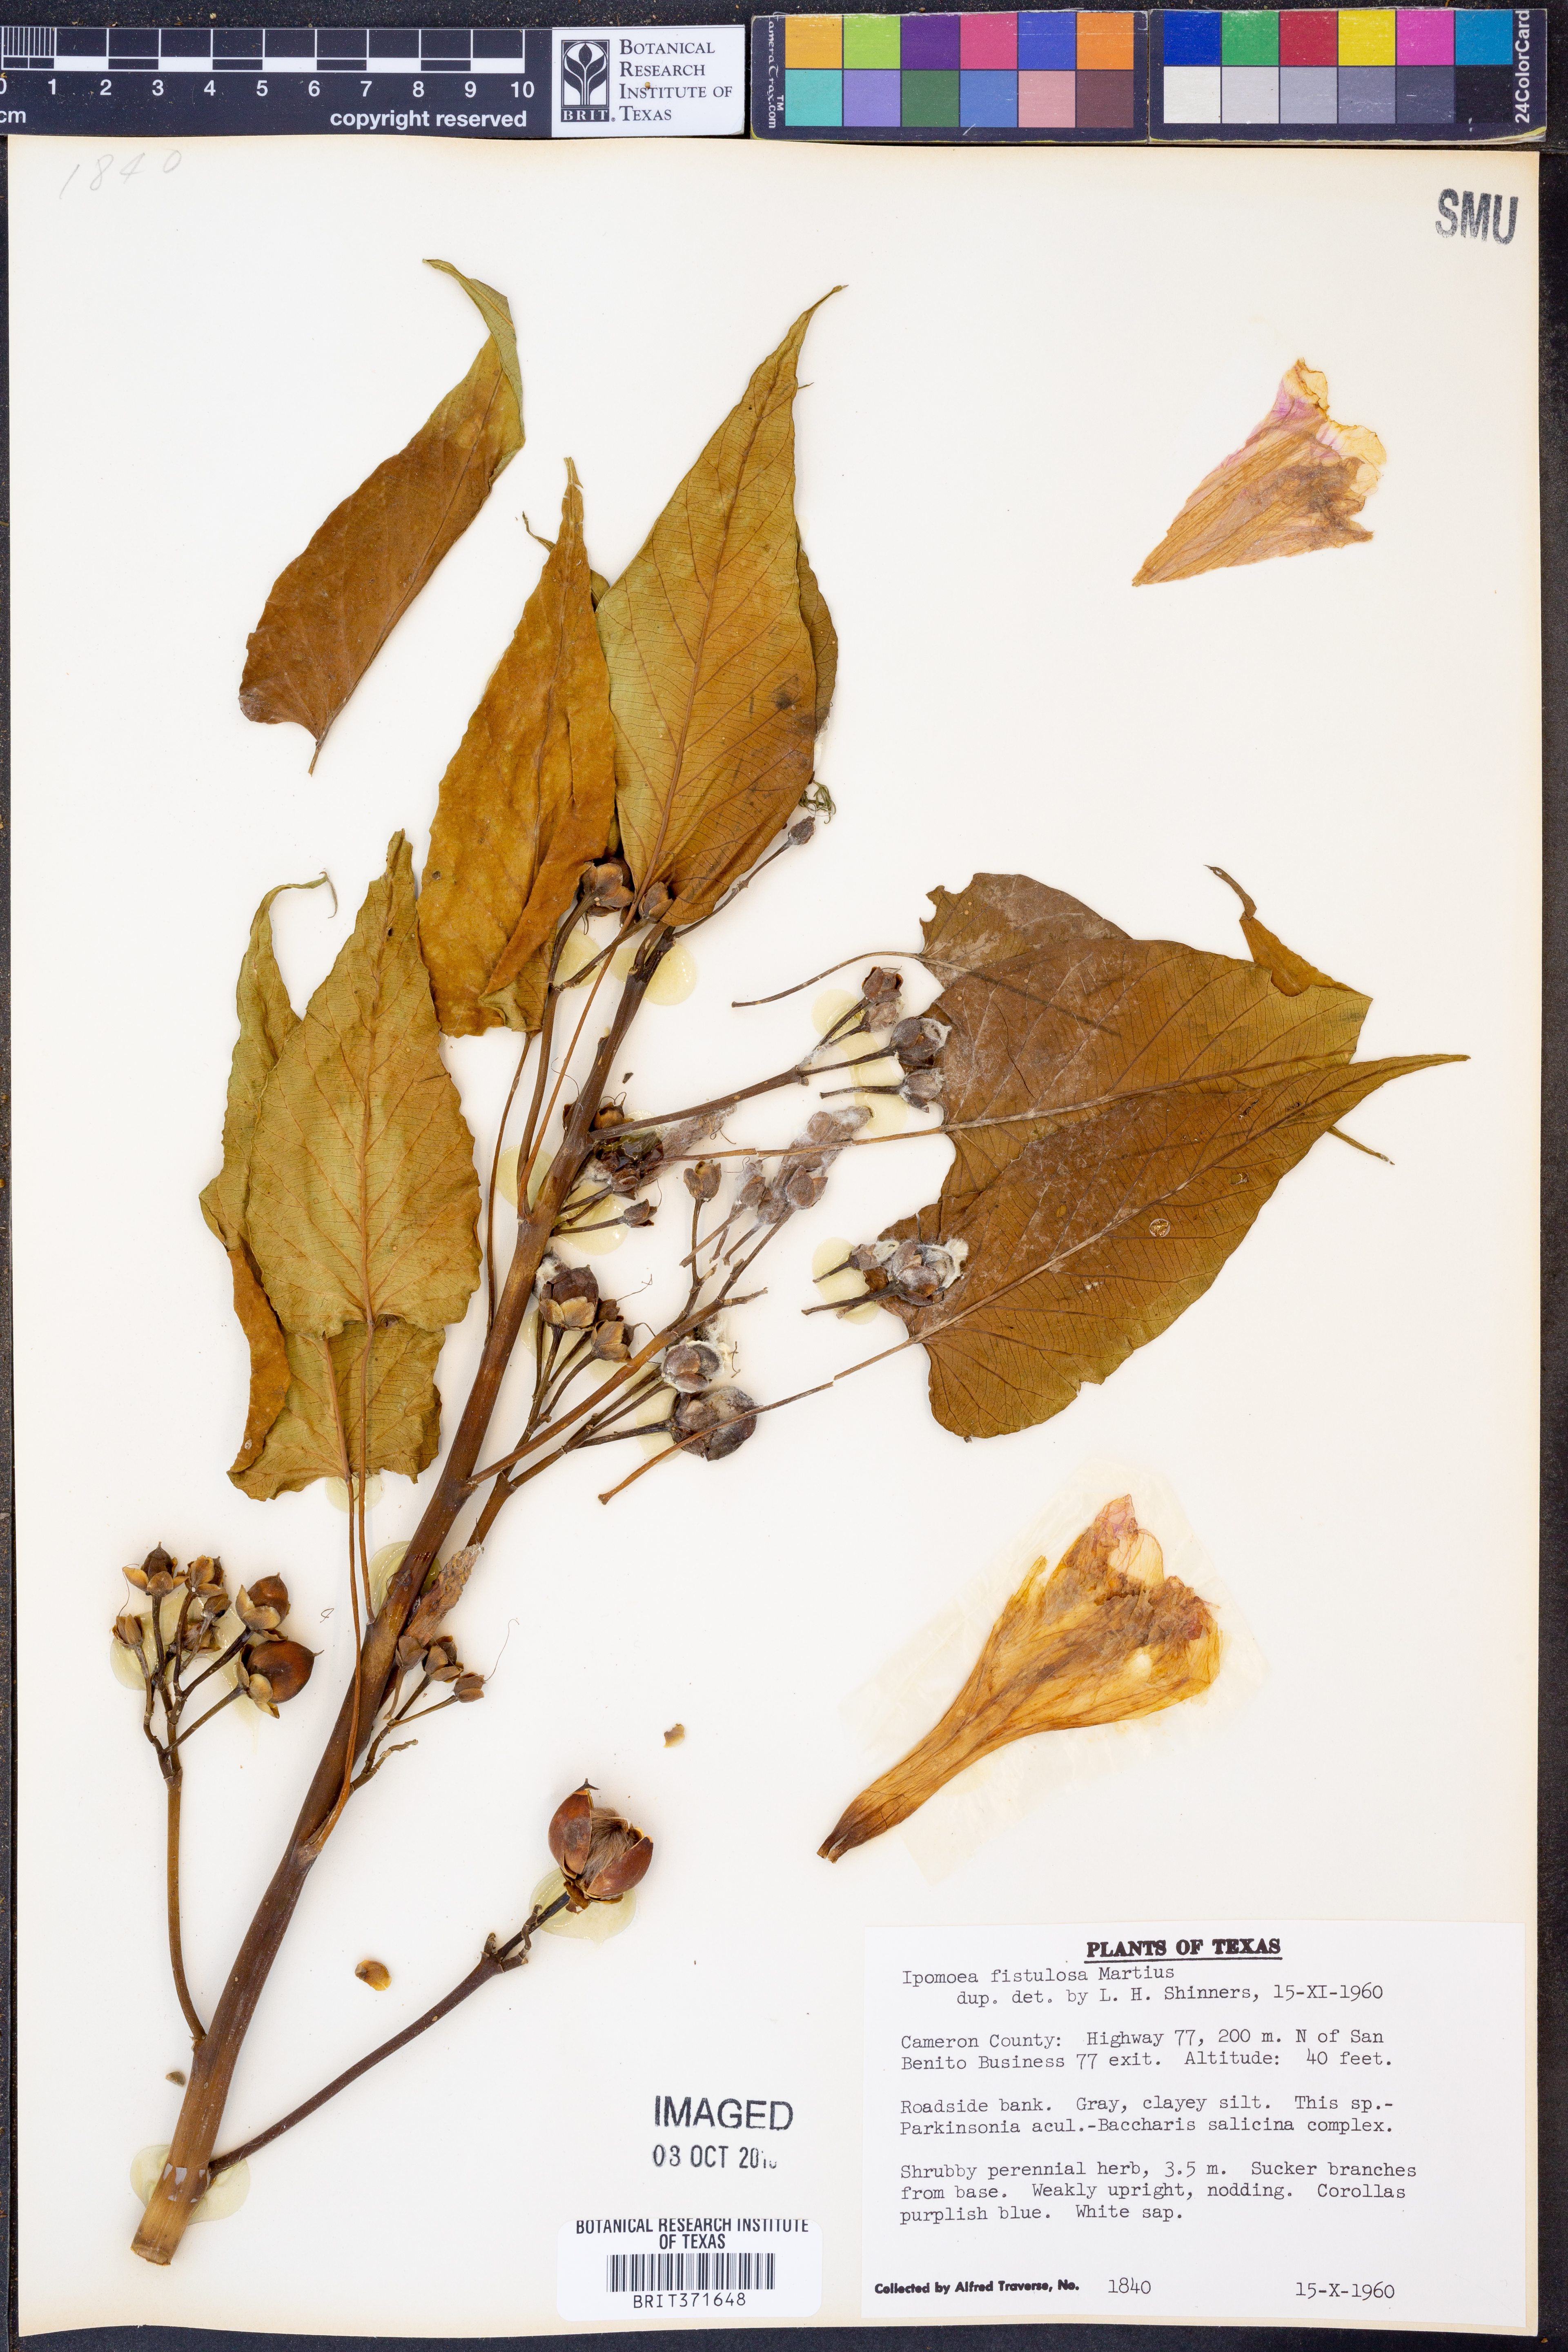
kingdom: Plantae
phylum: Tracheophyta
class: Magnoliopsida
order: Solanales
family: Convolvulaceae
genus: Ipomoea
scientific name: Ipomoea carnea
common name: Morning-glory
